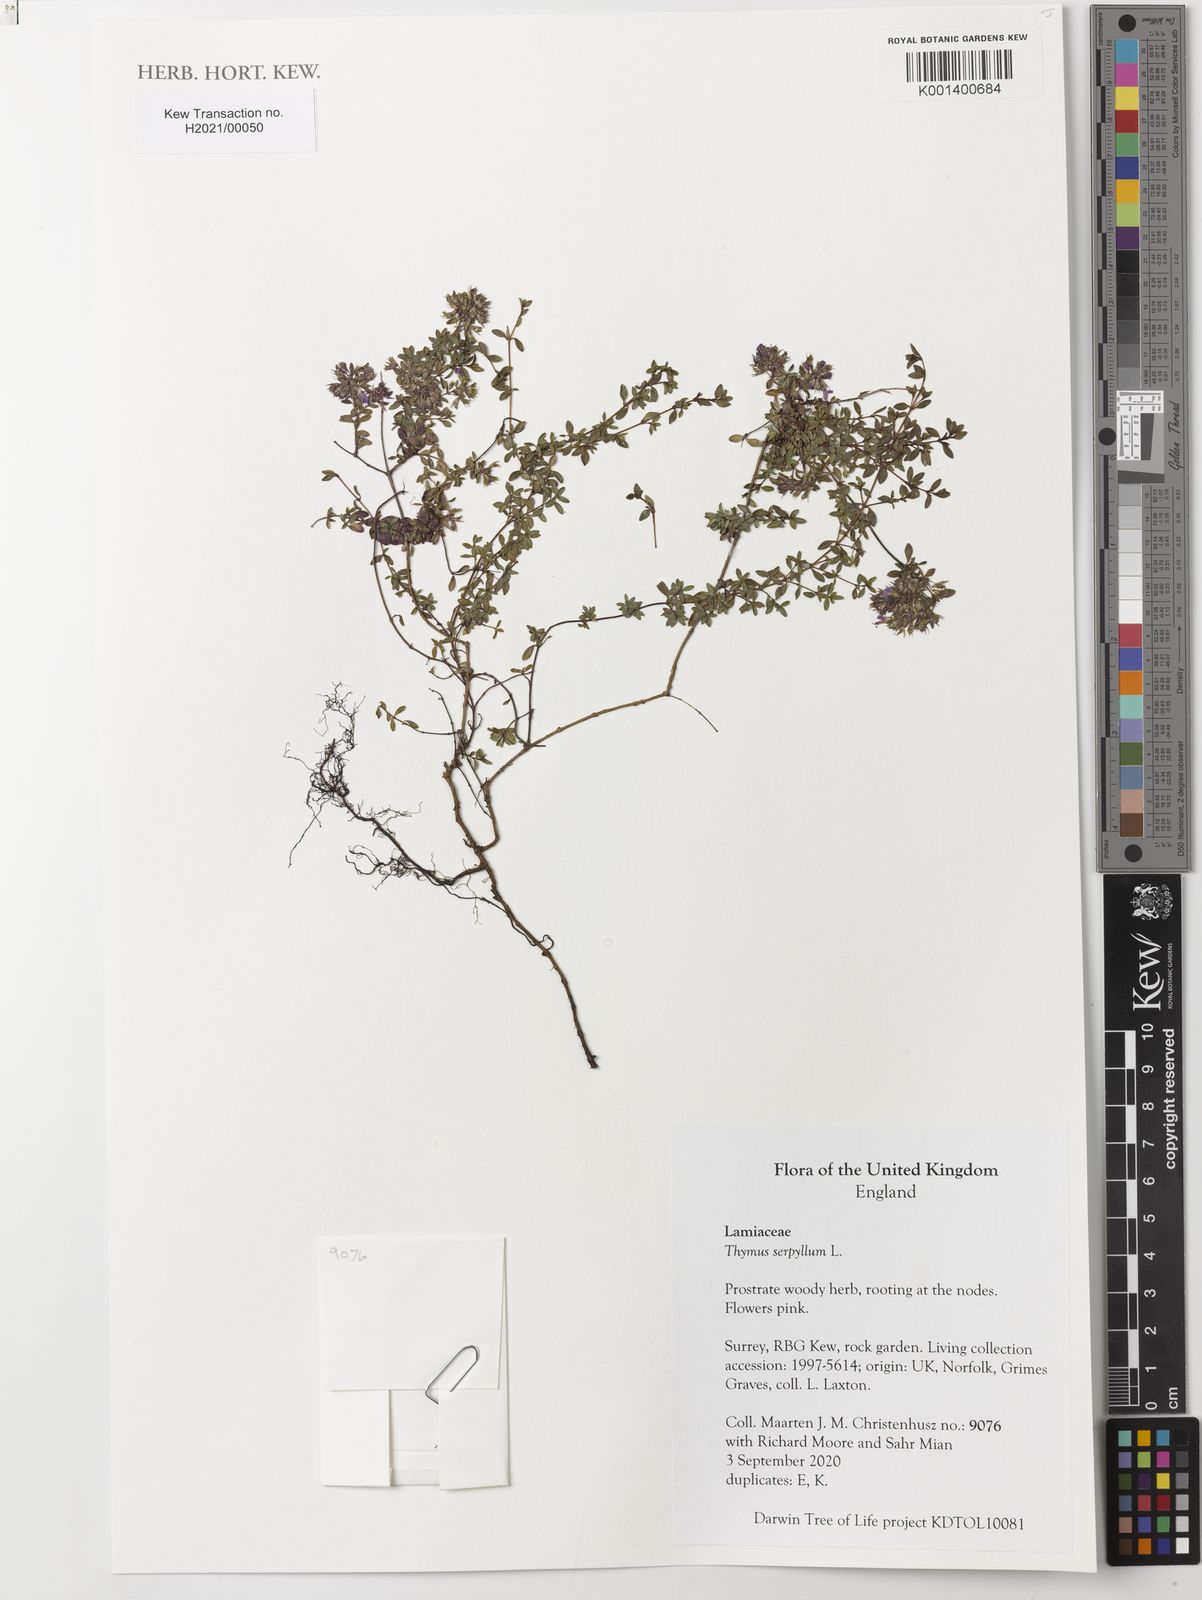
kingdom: Plantae
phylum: Tracheophyta
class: Magnoliopsida
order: Lamiales
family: Lamiaceae
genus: Thymus
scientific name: Thymus serpyllum
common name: Breckland thyme
